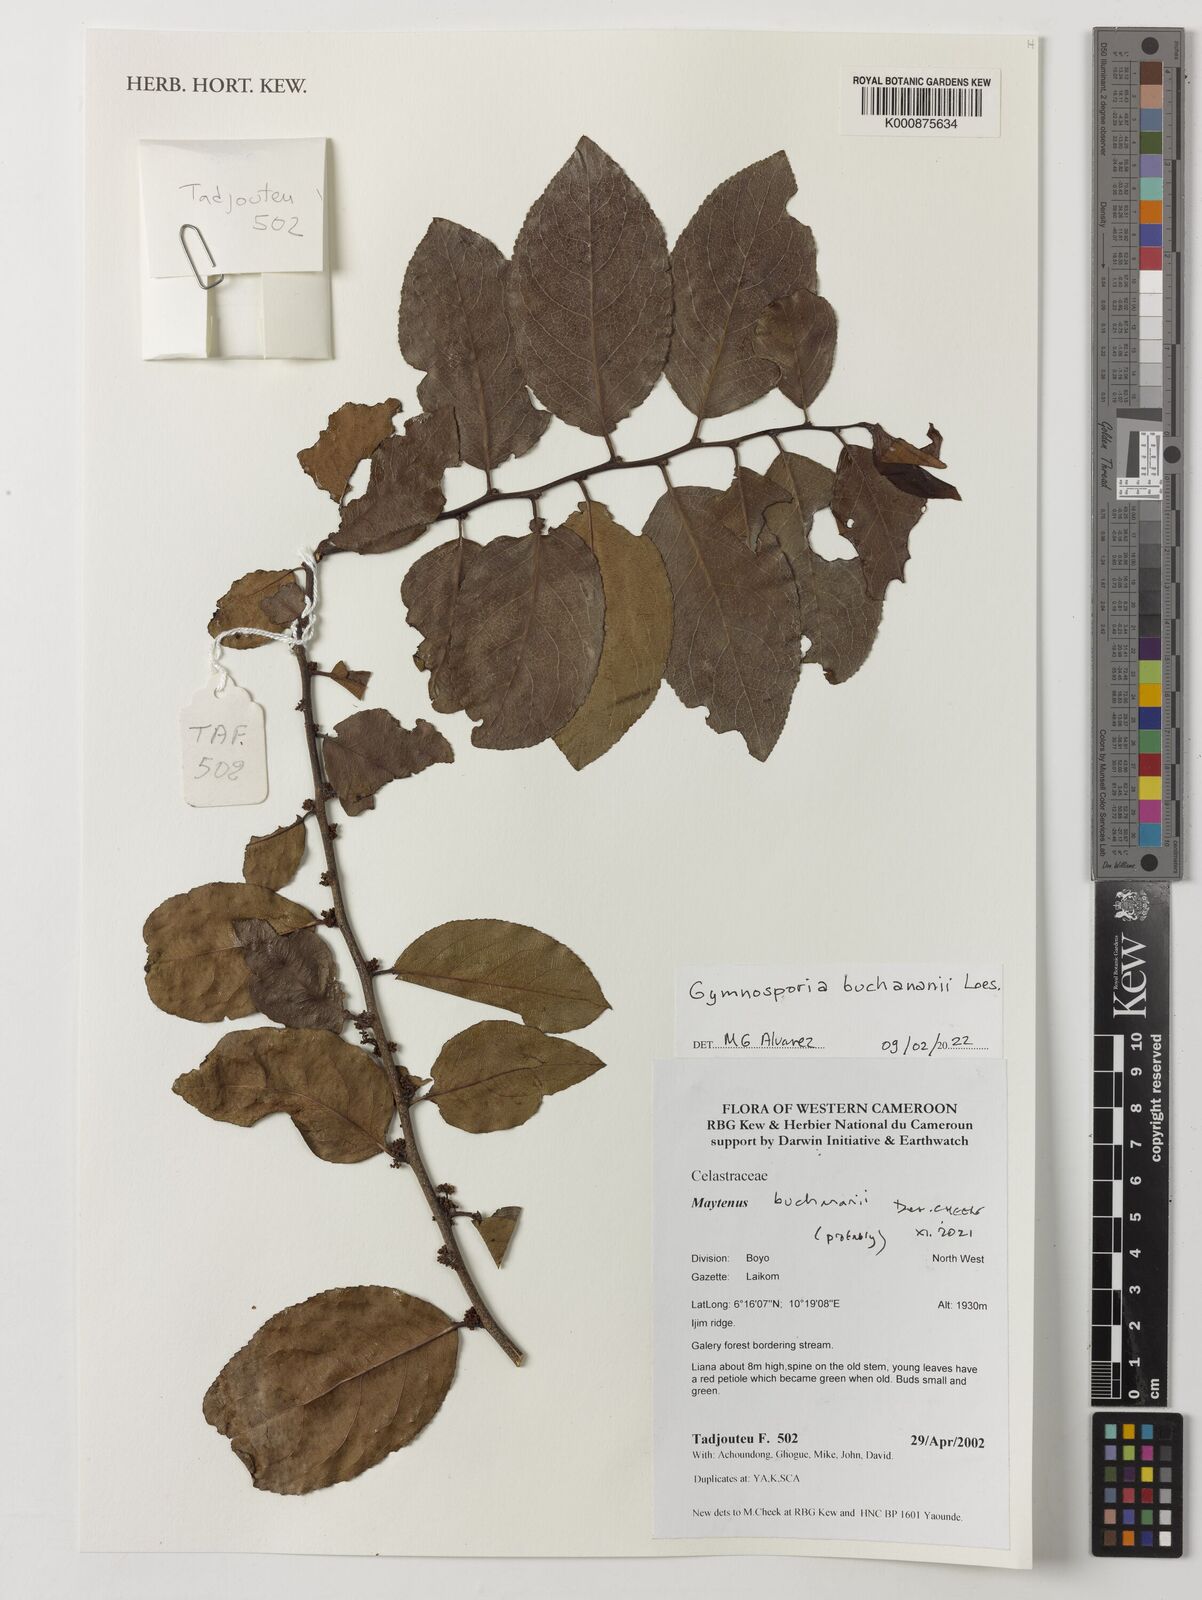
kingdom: Plantae
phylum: Tracheophyta
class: Magnoliopsida
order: Celastrales
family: Celastraceae
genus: Gymnosporia
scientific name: Gymnosporia buchananii
